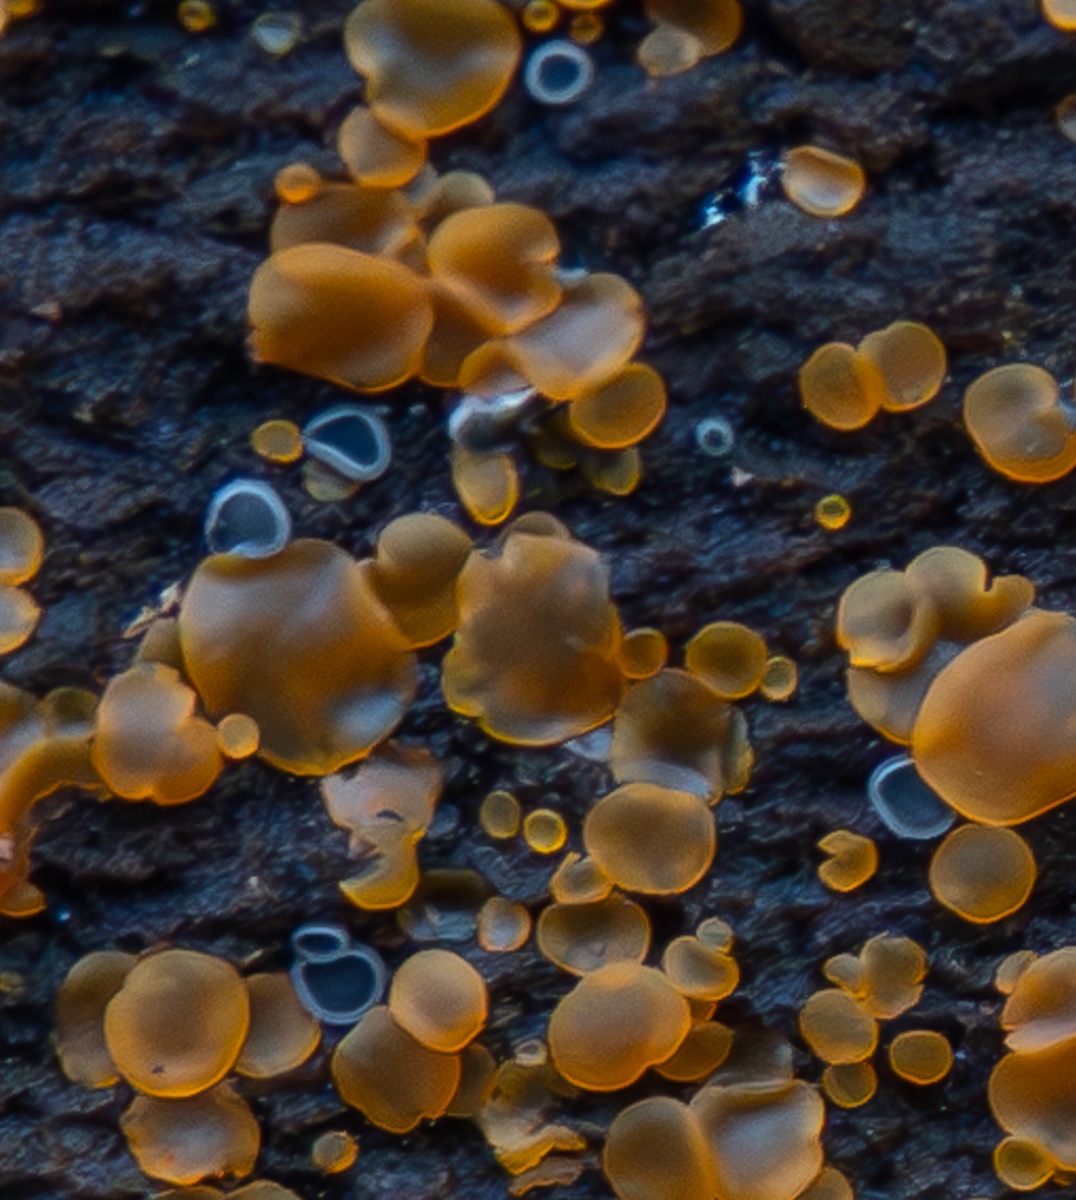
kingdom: Fungi
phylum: Ascomycota
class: Leotiomycetes
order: Helotiales
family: Mollisiaceae
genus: Mollisia
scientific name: Mollisia cinerea
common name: almindelig gråskive
